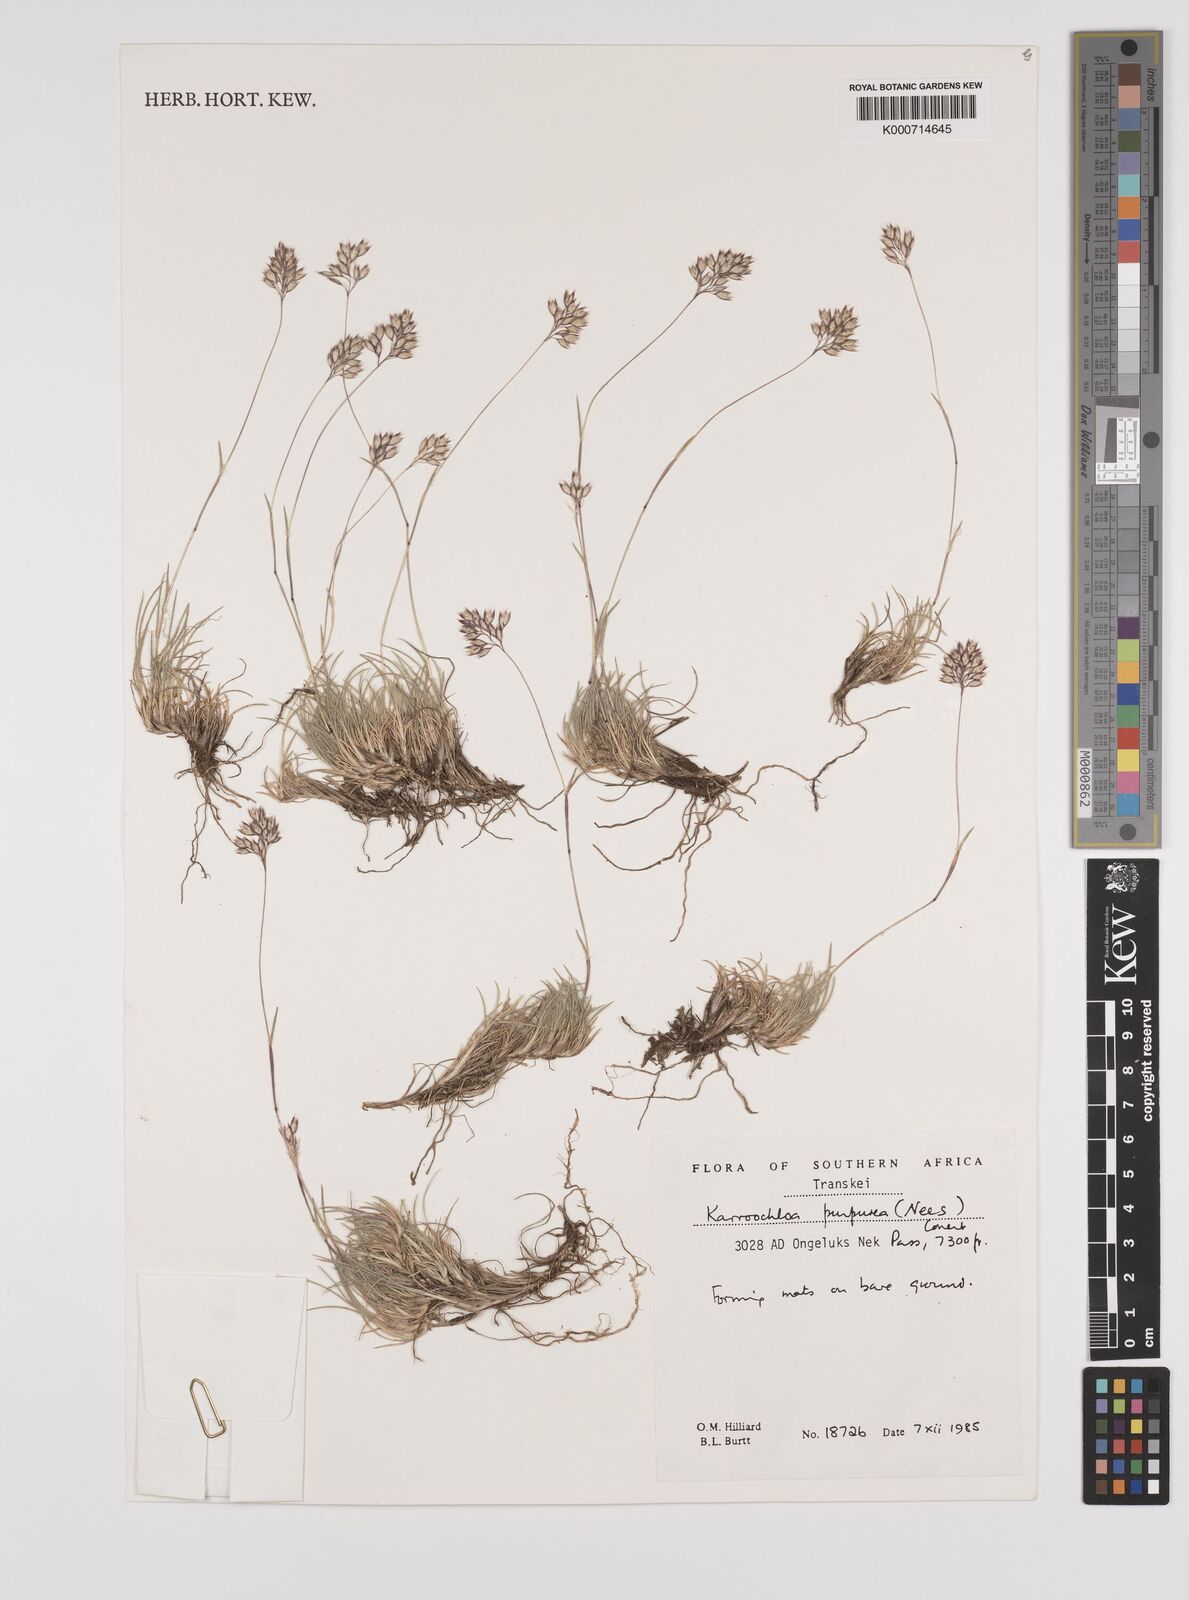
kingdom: Plantae
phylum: Tracheophyta
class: Liliopsida
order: Poales
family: Poaceae
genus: Rytidosperma
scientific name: Rytidosperma
